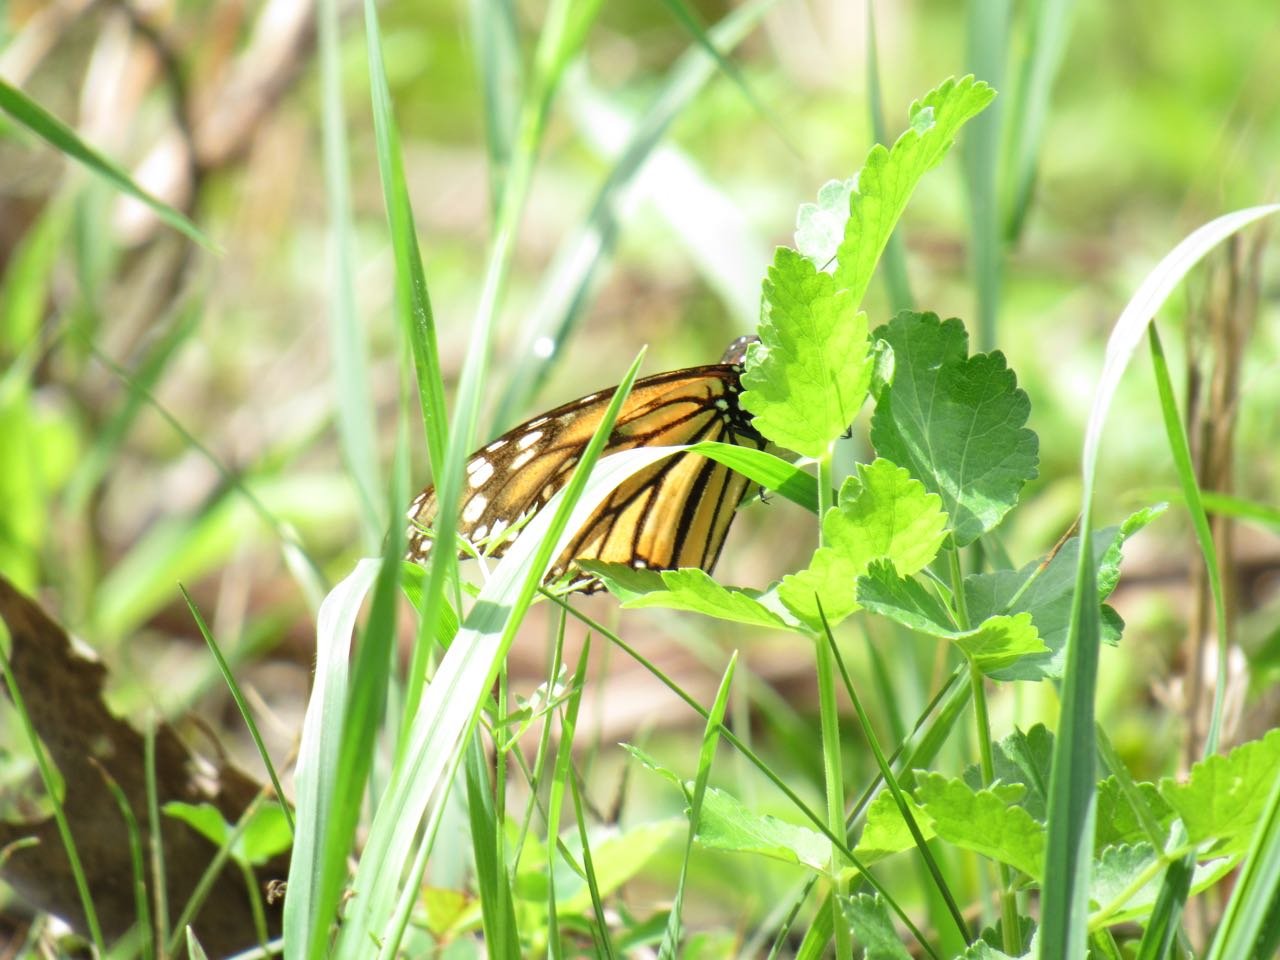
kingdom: Animalia
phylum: Arthropoda
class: Insecta
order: Lepidoptera
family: Nymphalidae
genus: Danaus
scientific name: Danaus plexippus
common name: Monarch
